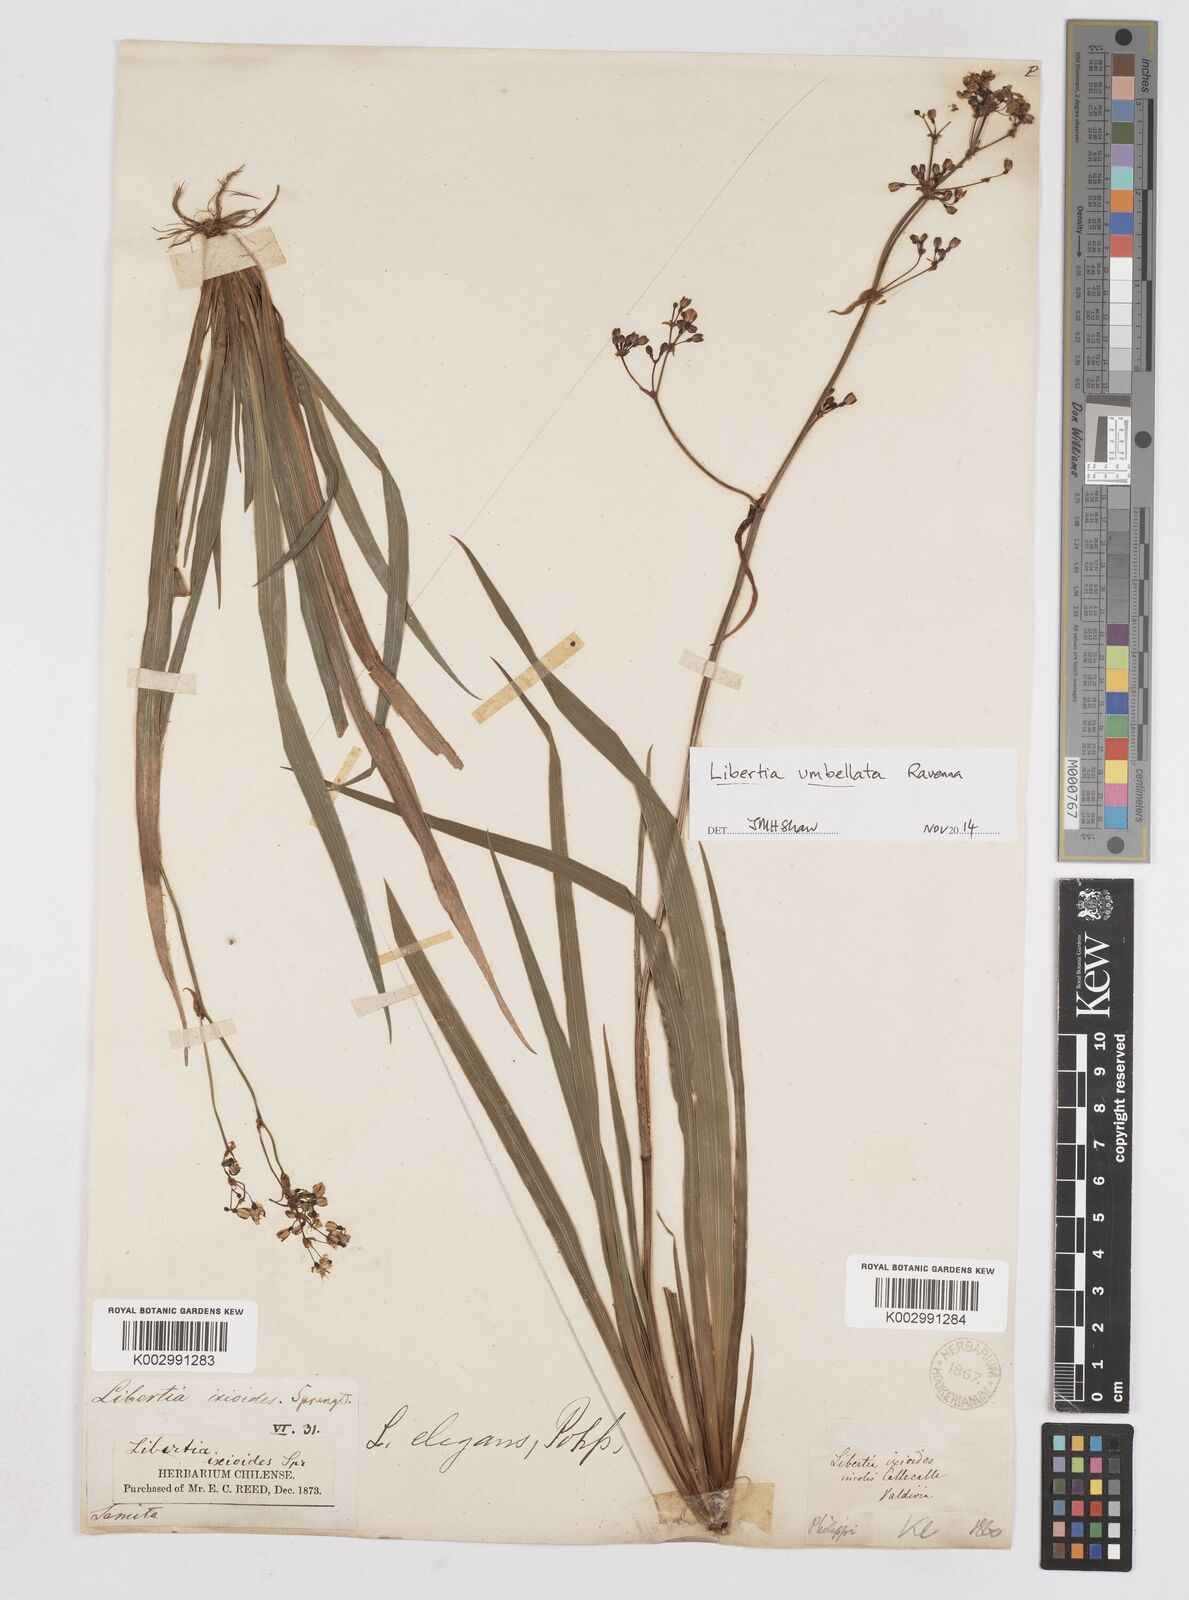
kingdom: Plantae
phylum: Tracheophyta
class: Liliopsida
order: Asparagales
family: Iridaceae
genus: Libertia
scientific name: Libertia umbellata
